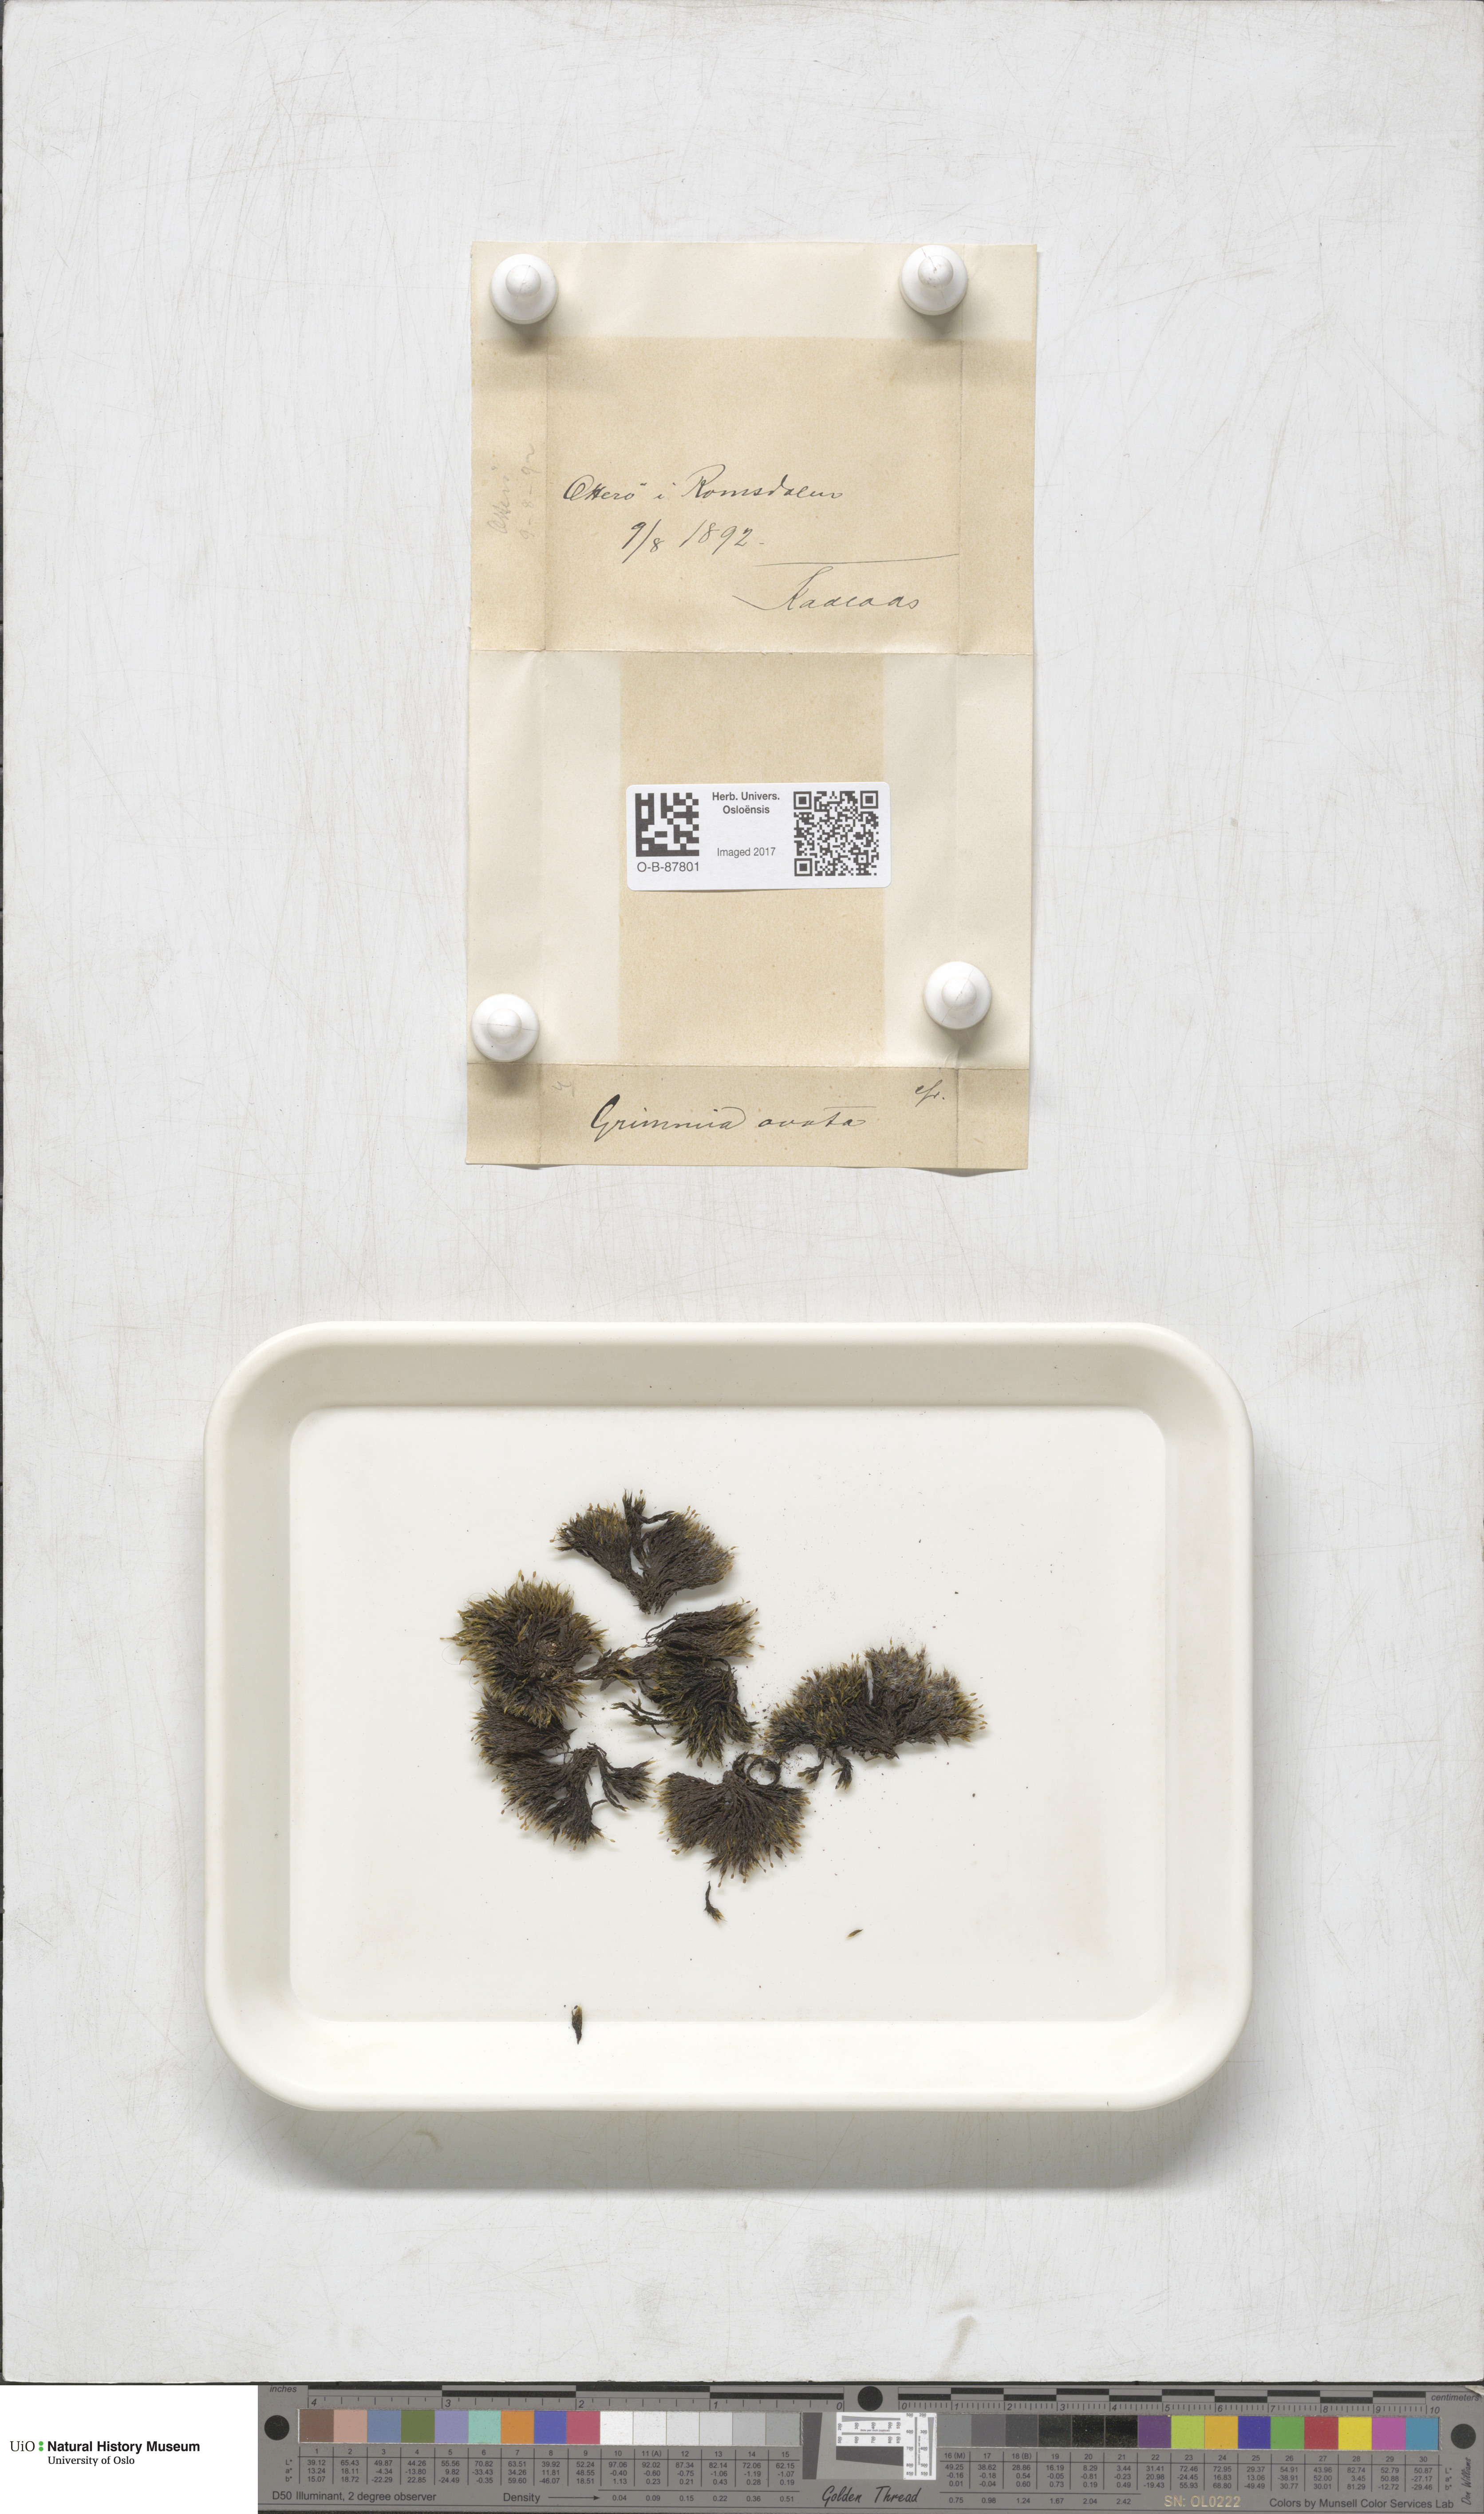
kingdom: Plantae
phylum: Bryophyta
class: Bryopsida
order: Grimmiales
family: Grimmiaceae
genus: Grimmia
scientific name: Grimmia ovalis
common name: Oval grimmia
